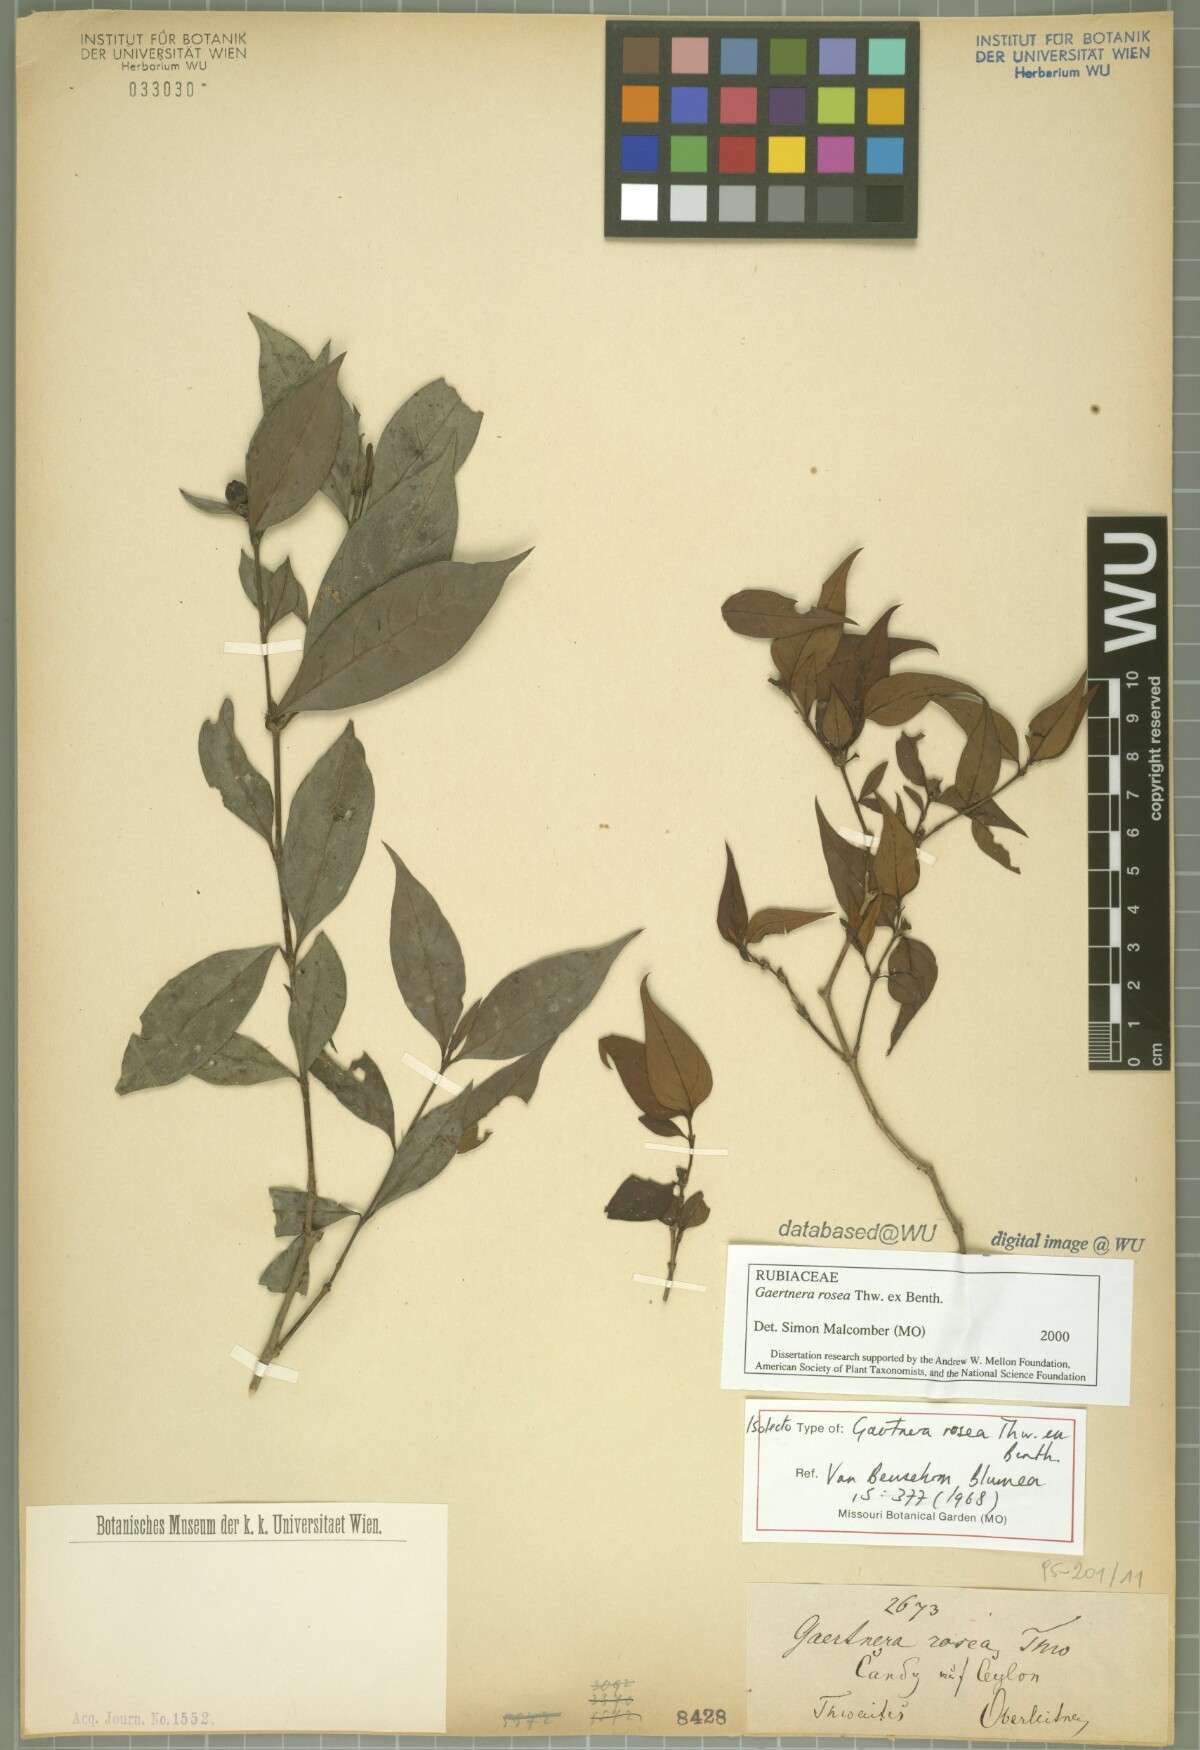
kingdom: Plantae
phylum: Tracheophyta
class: Magnoliopsida
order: Gentianales
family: Rubiaceae
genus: Gaertnera
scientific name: Gaertnera rosea
